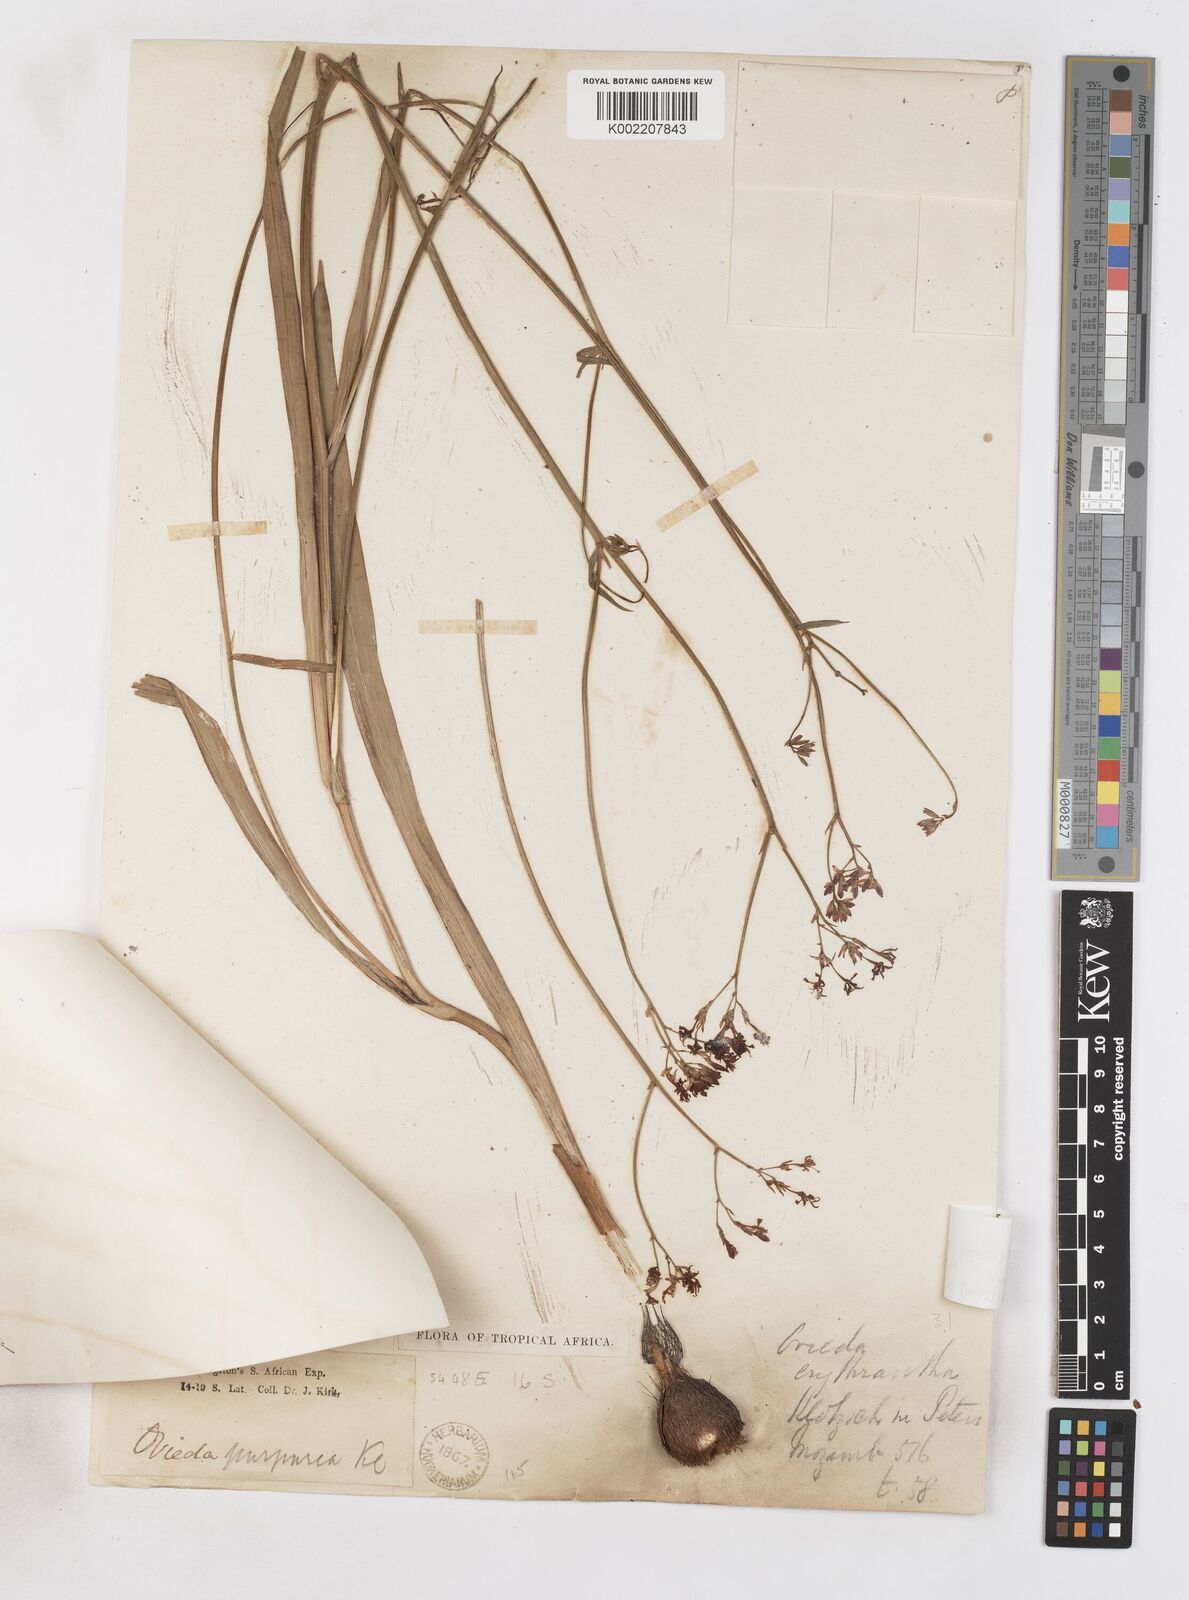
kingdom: Plantae
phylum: Tracheophyta
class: Liliopsida
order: Asparagales
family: Iridaceae
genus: Afrosolen
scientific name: Afrosolen erythranthus
